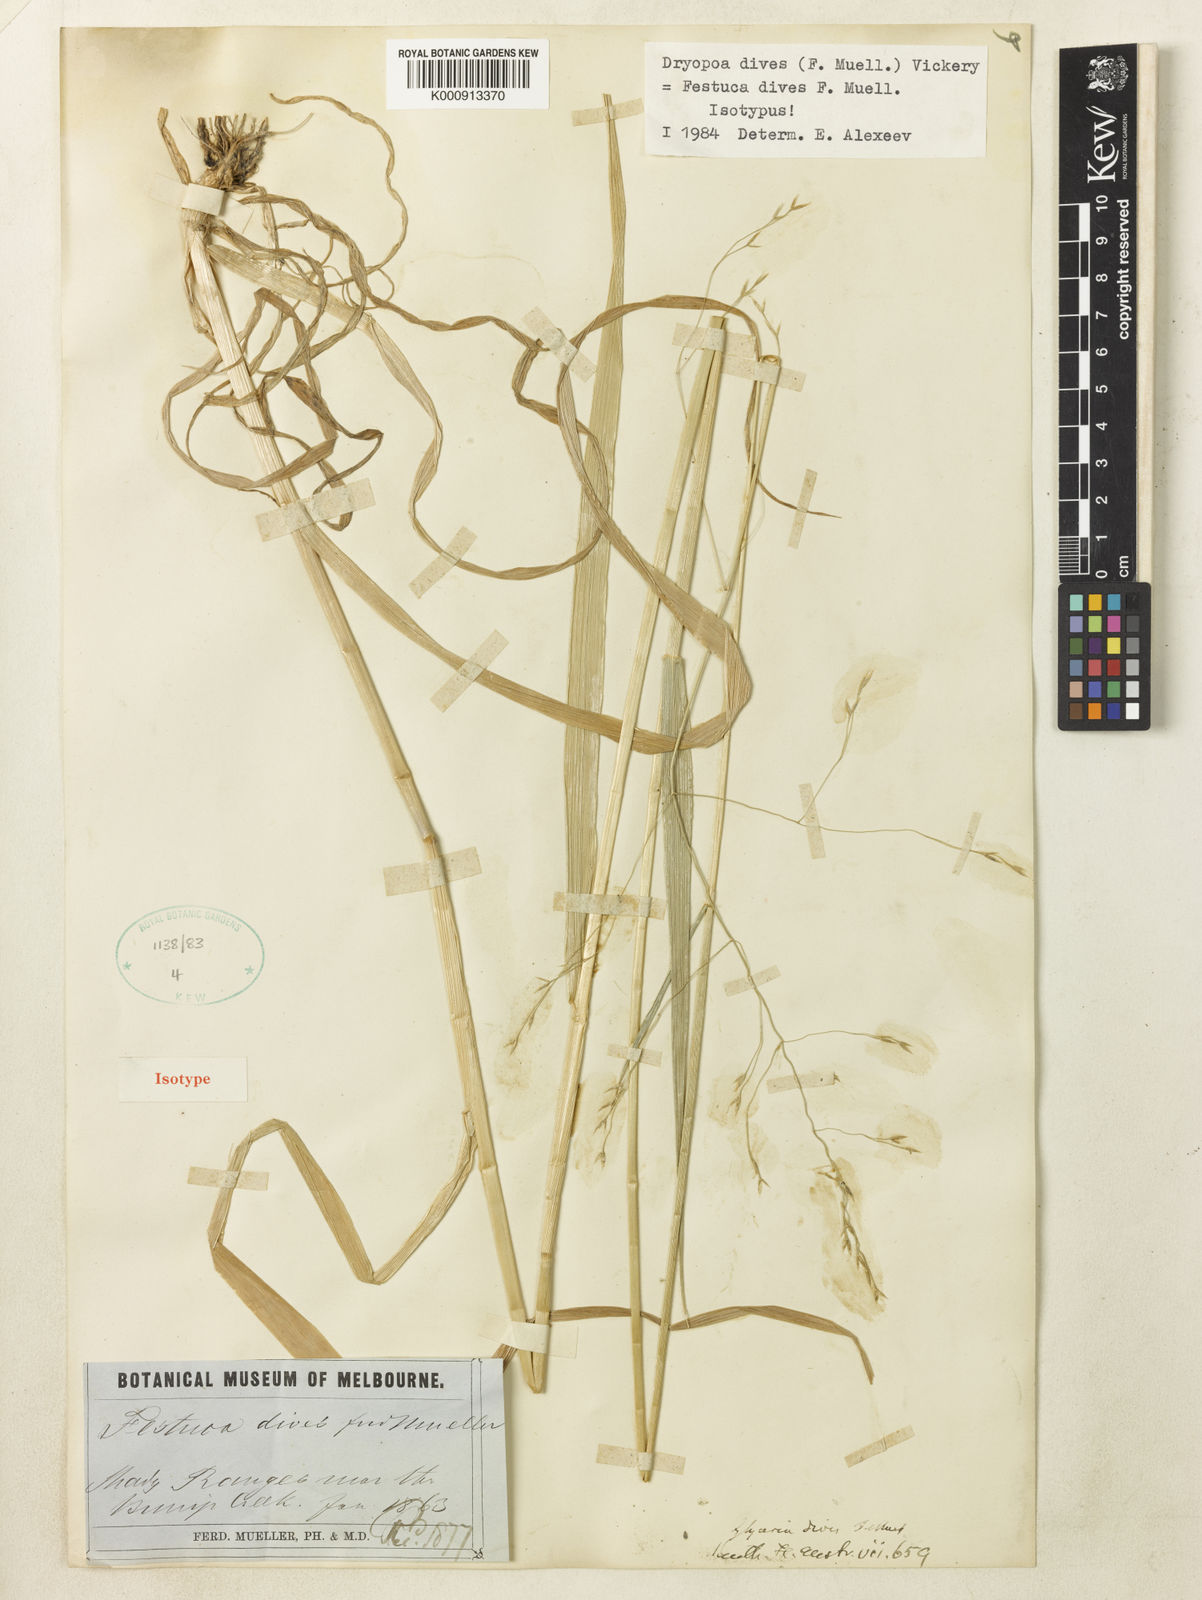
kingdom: Plantae
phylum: Tracheophyta
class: Liliopsida
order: Poales
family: Poaceae
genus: Dryopoa
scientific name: Dryopoa dives
